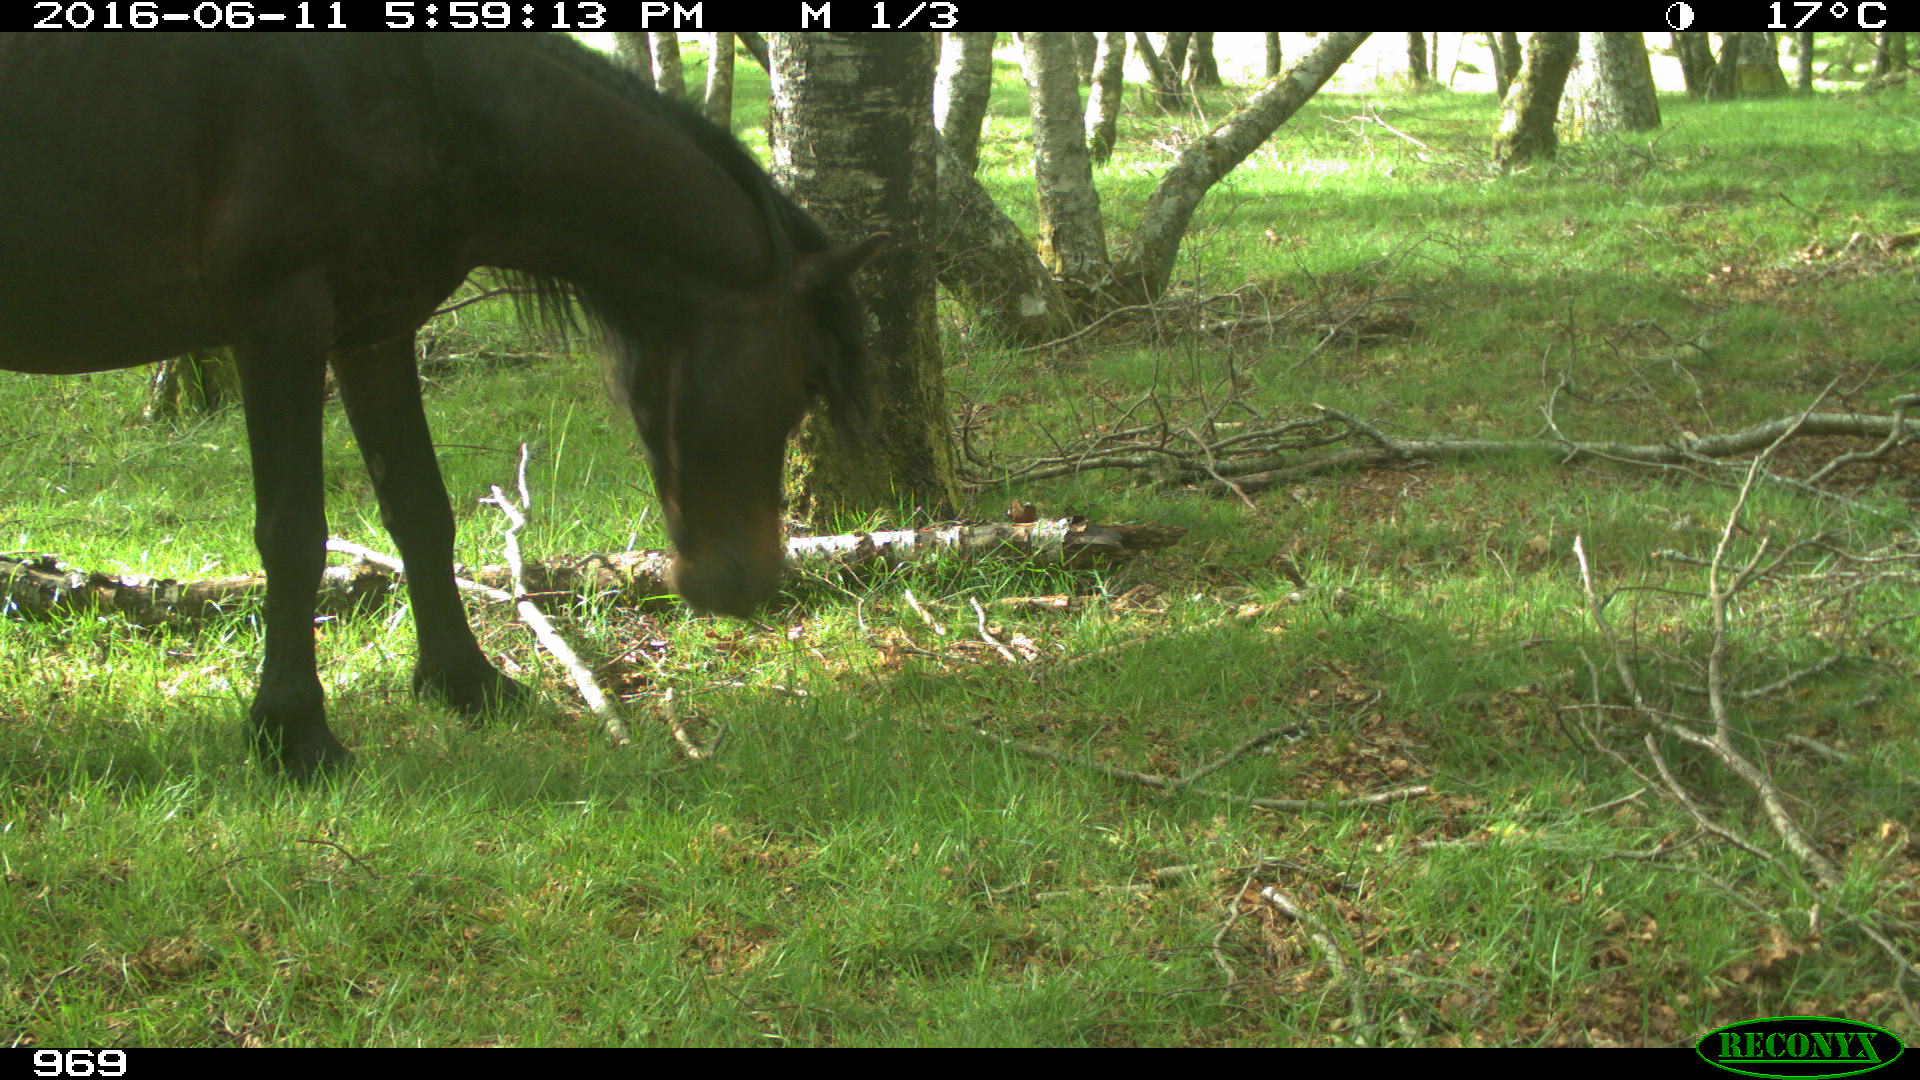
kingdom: Animalia
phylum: Chordata
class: Mammalia
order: Perissodactyla
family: Equidae
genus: Equus
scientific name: Equus caballus
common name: Horse
